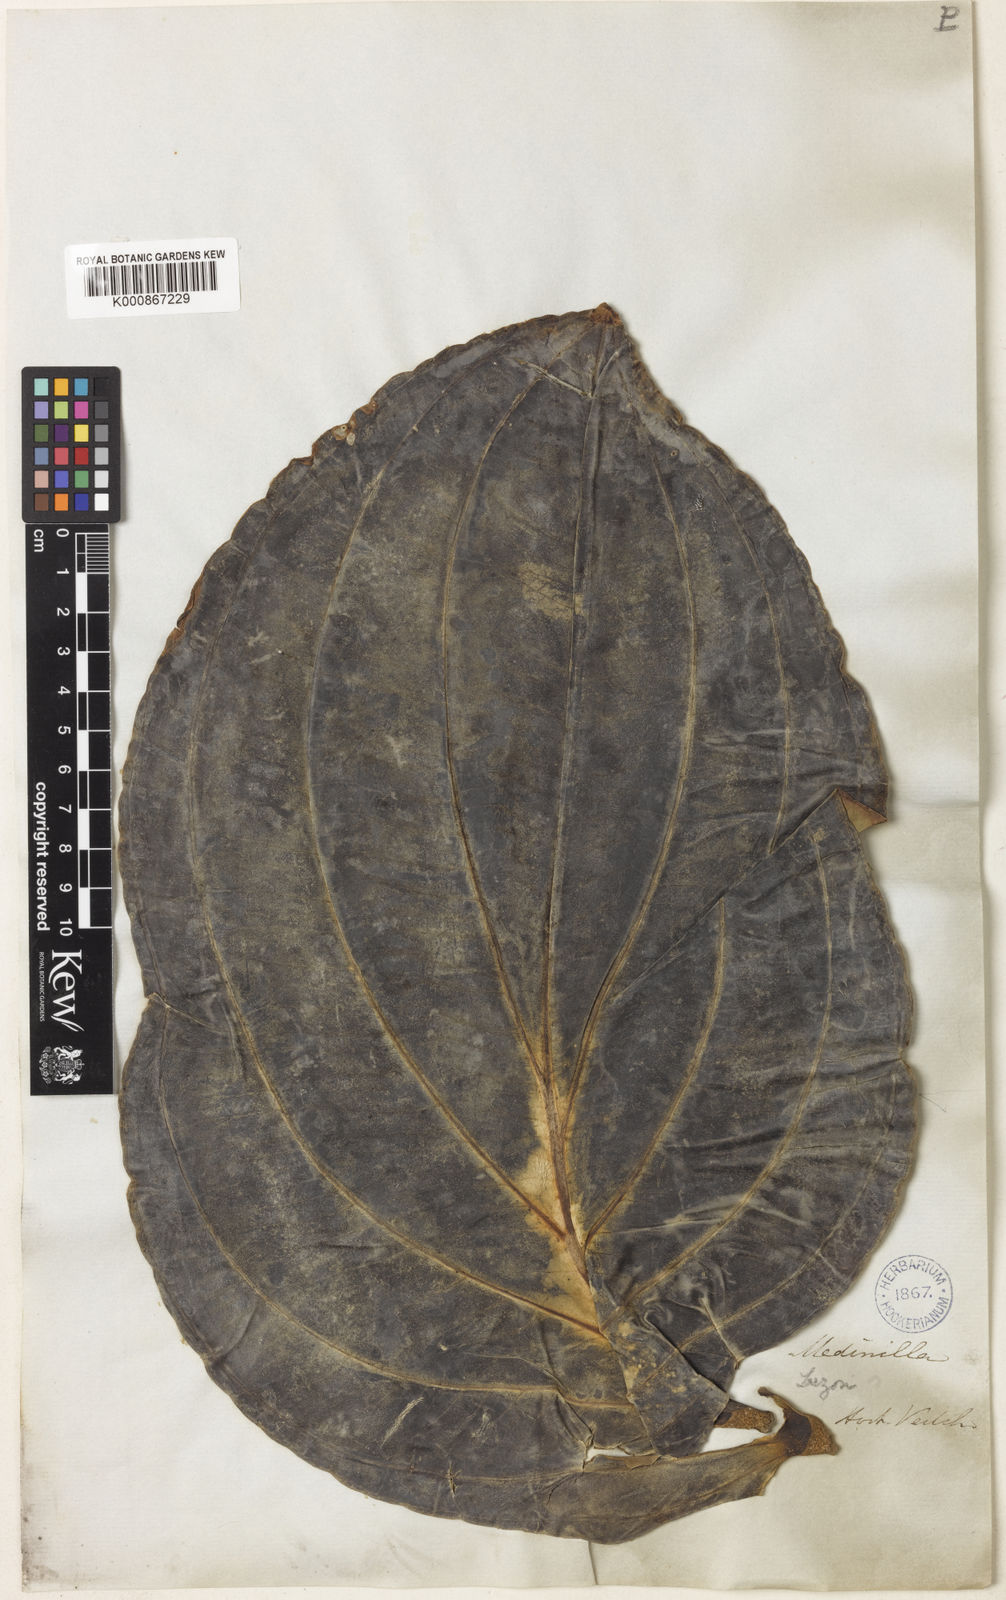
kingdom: Plantae
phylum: Tracheophyta
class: Magnoliopsida
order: Myrtales
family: Melastomataceae
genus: Medinilla
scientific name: Medinilla magnifica
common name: Showy medinilla
